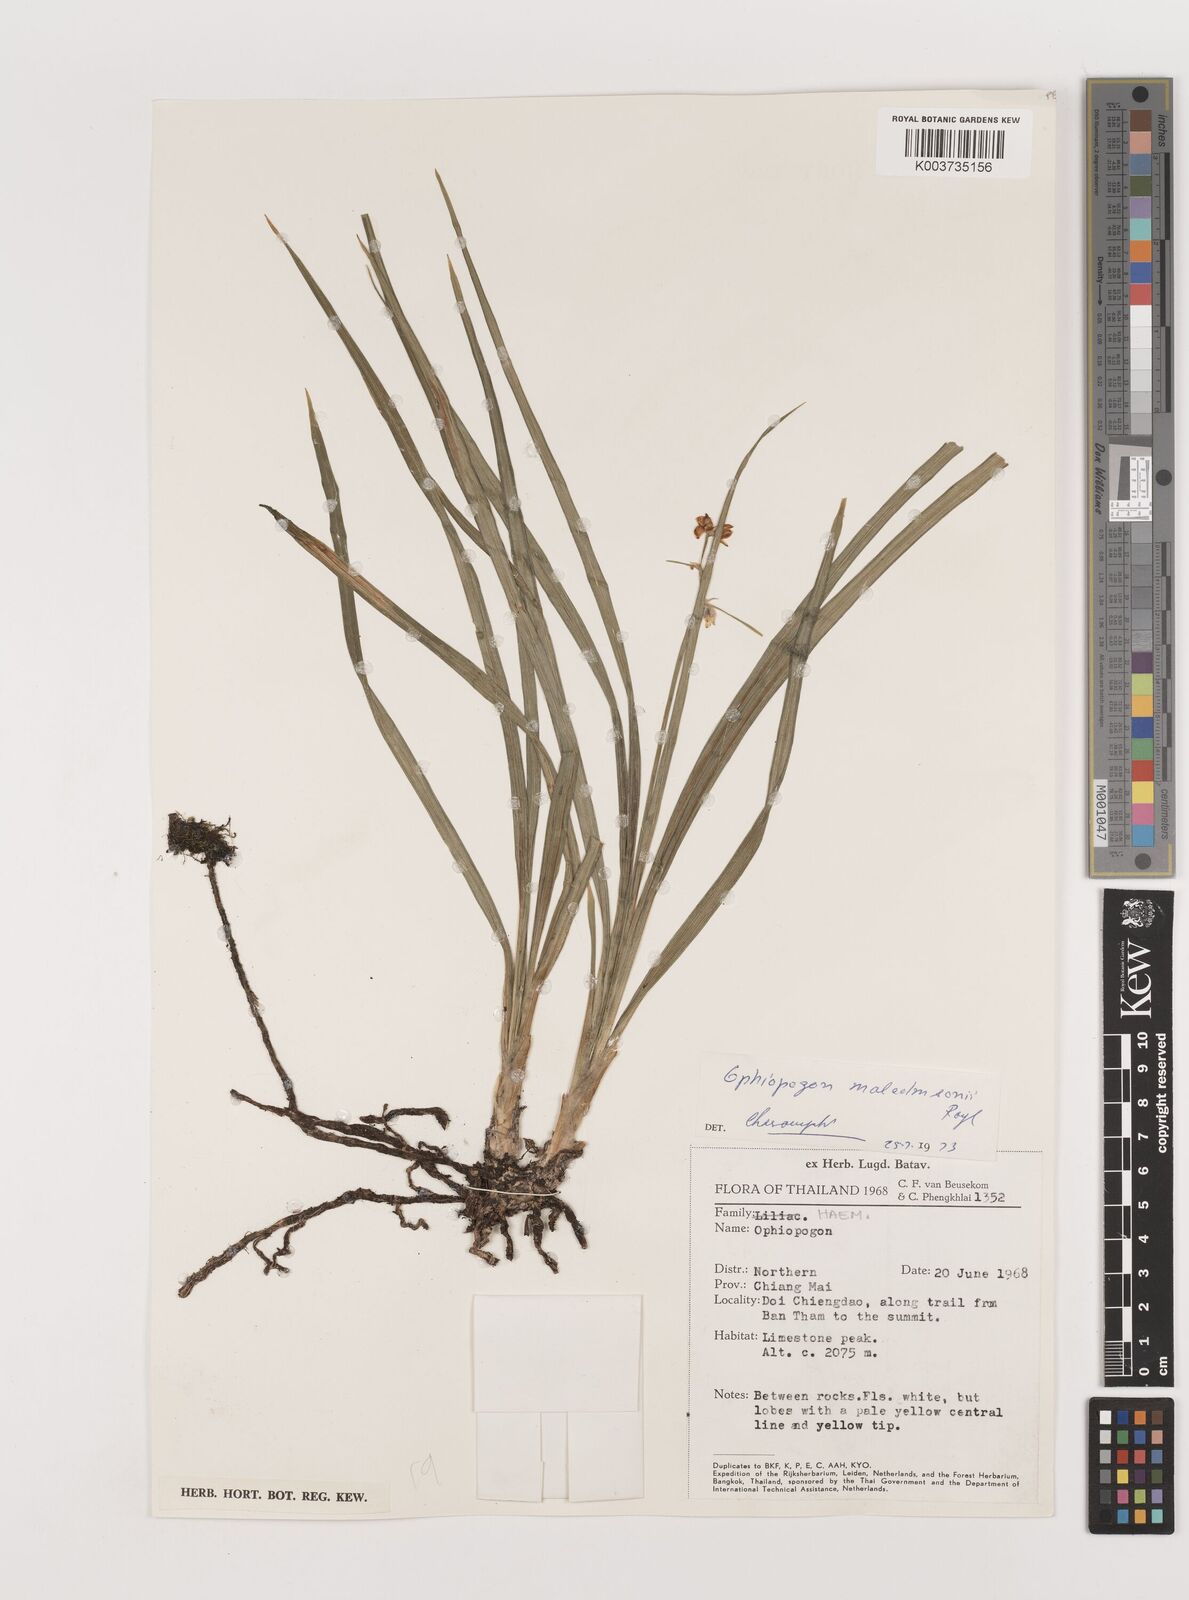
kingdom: Plantae
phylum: Tracheophyta
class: Liliopsida
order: Asparagales
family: Asparagaceae
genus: Ophiopogon
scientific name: Ophiopogon malcolmsonii
